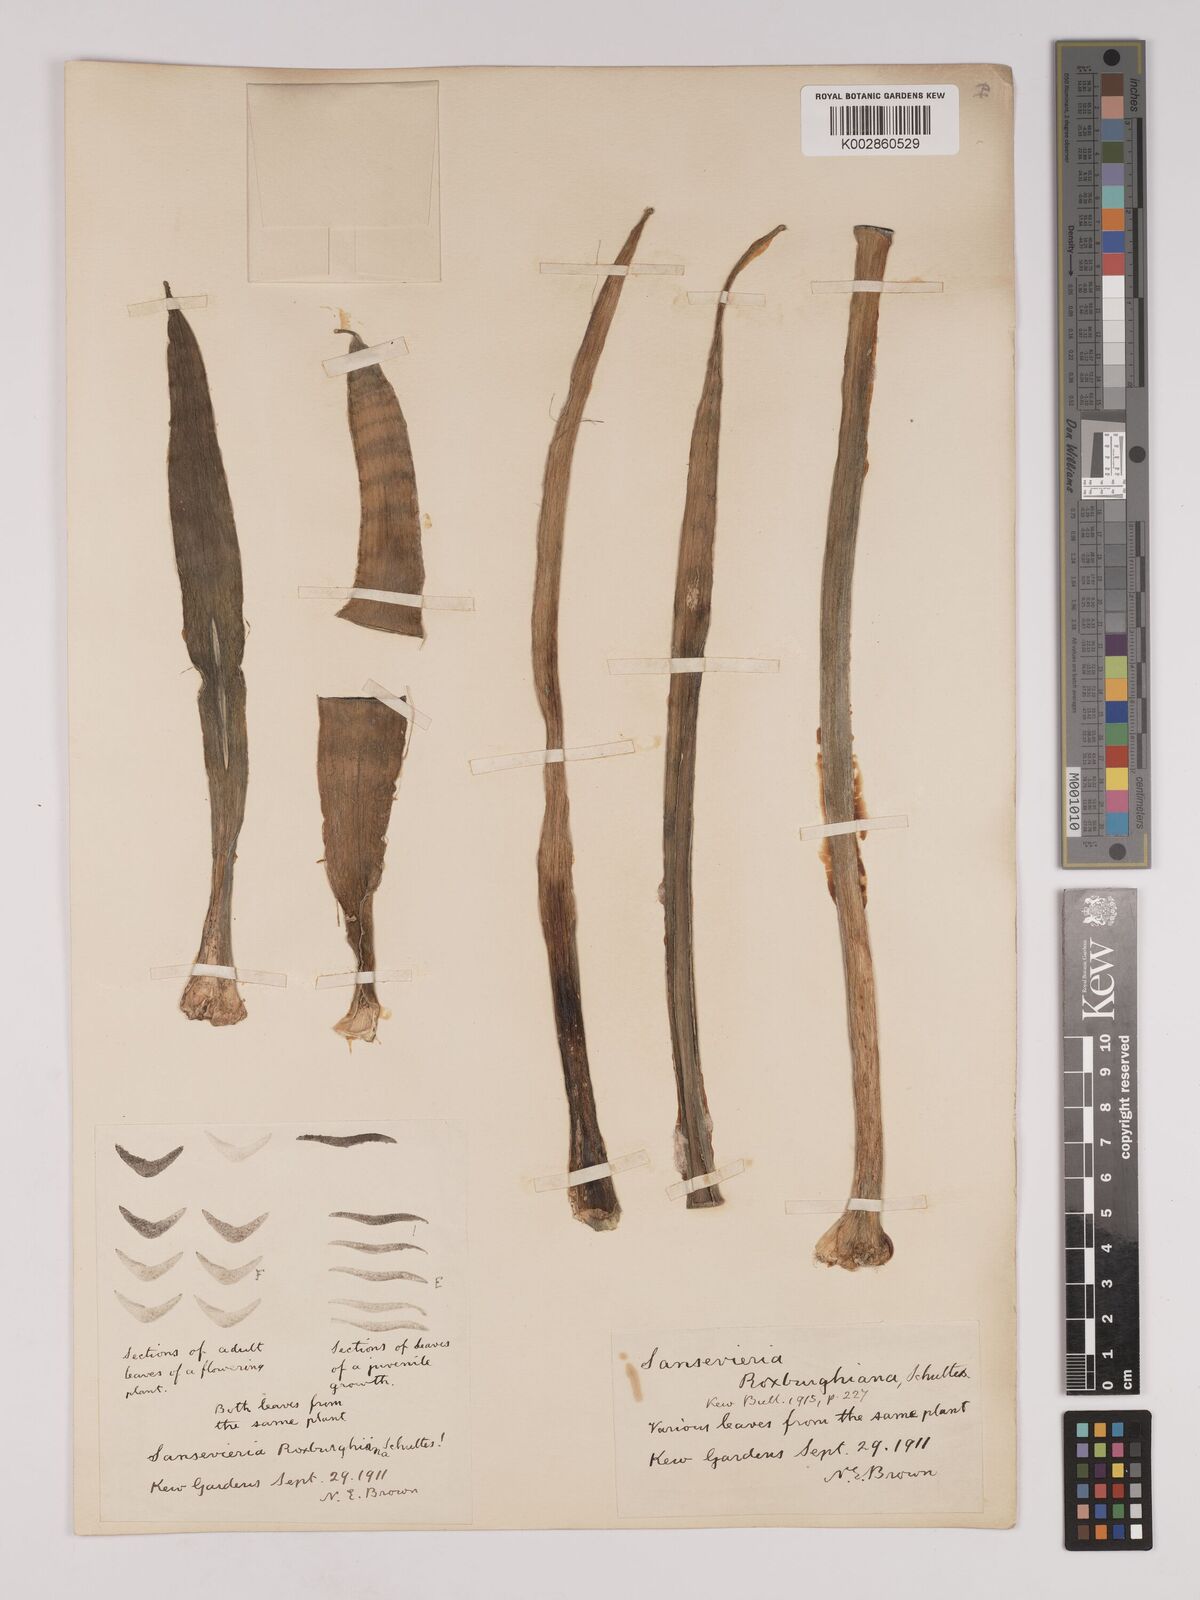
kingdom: Plantae
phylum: Tracheophyta
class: Liliopsida
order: Asparagales
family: Asparagaceae
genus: Dracaena
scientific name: Dracaena roxburghiana
